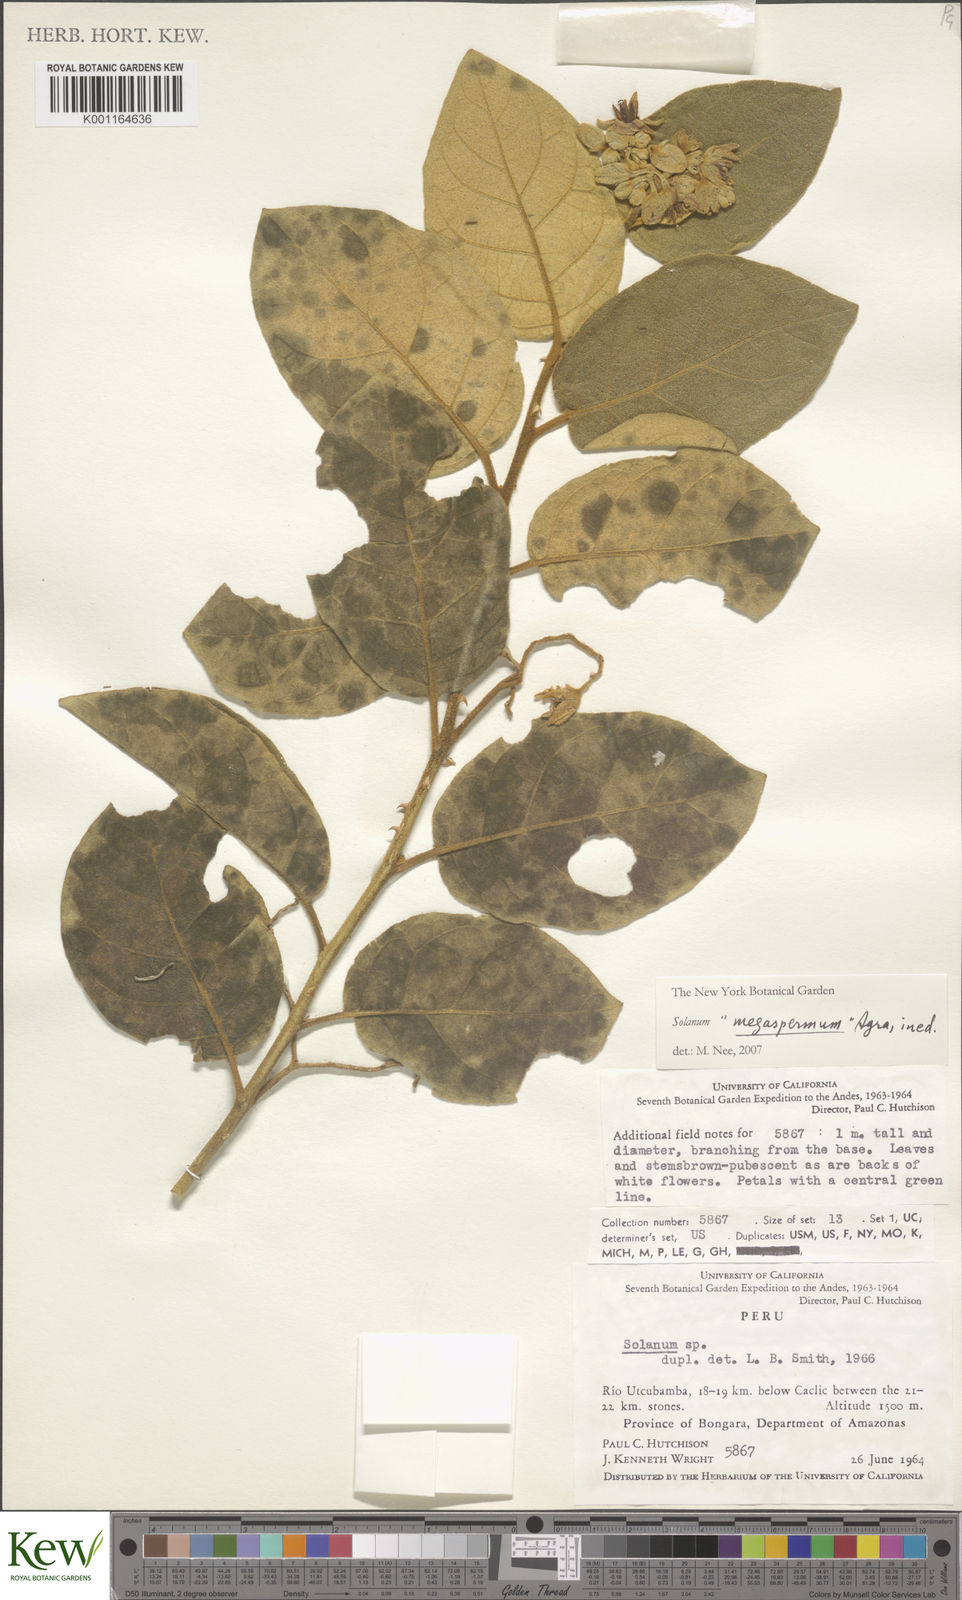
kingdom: Plantae
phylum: Tracheophyta
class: Magnoliopsida
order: Solanales
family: Solanaceae
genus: Solanum
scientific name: Solanum megaspermum
